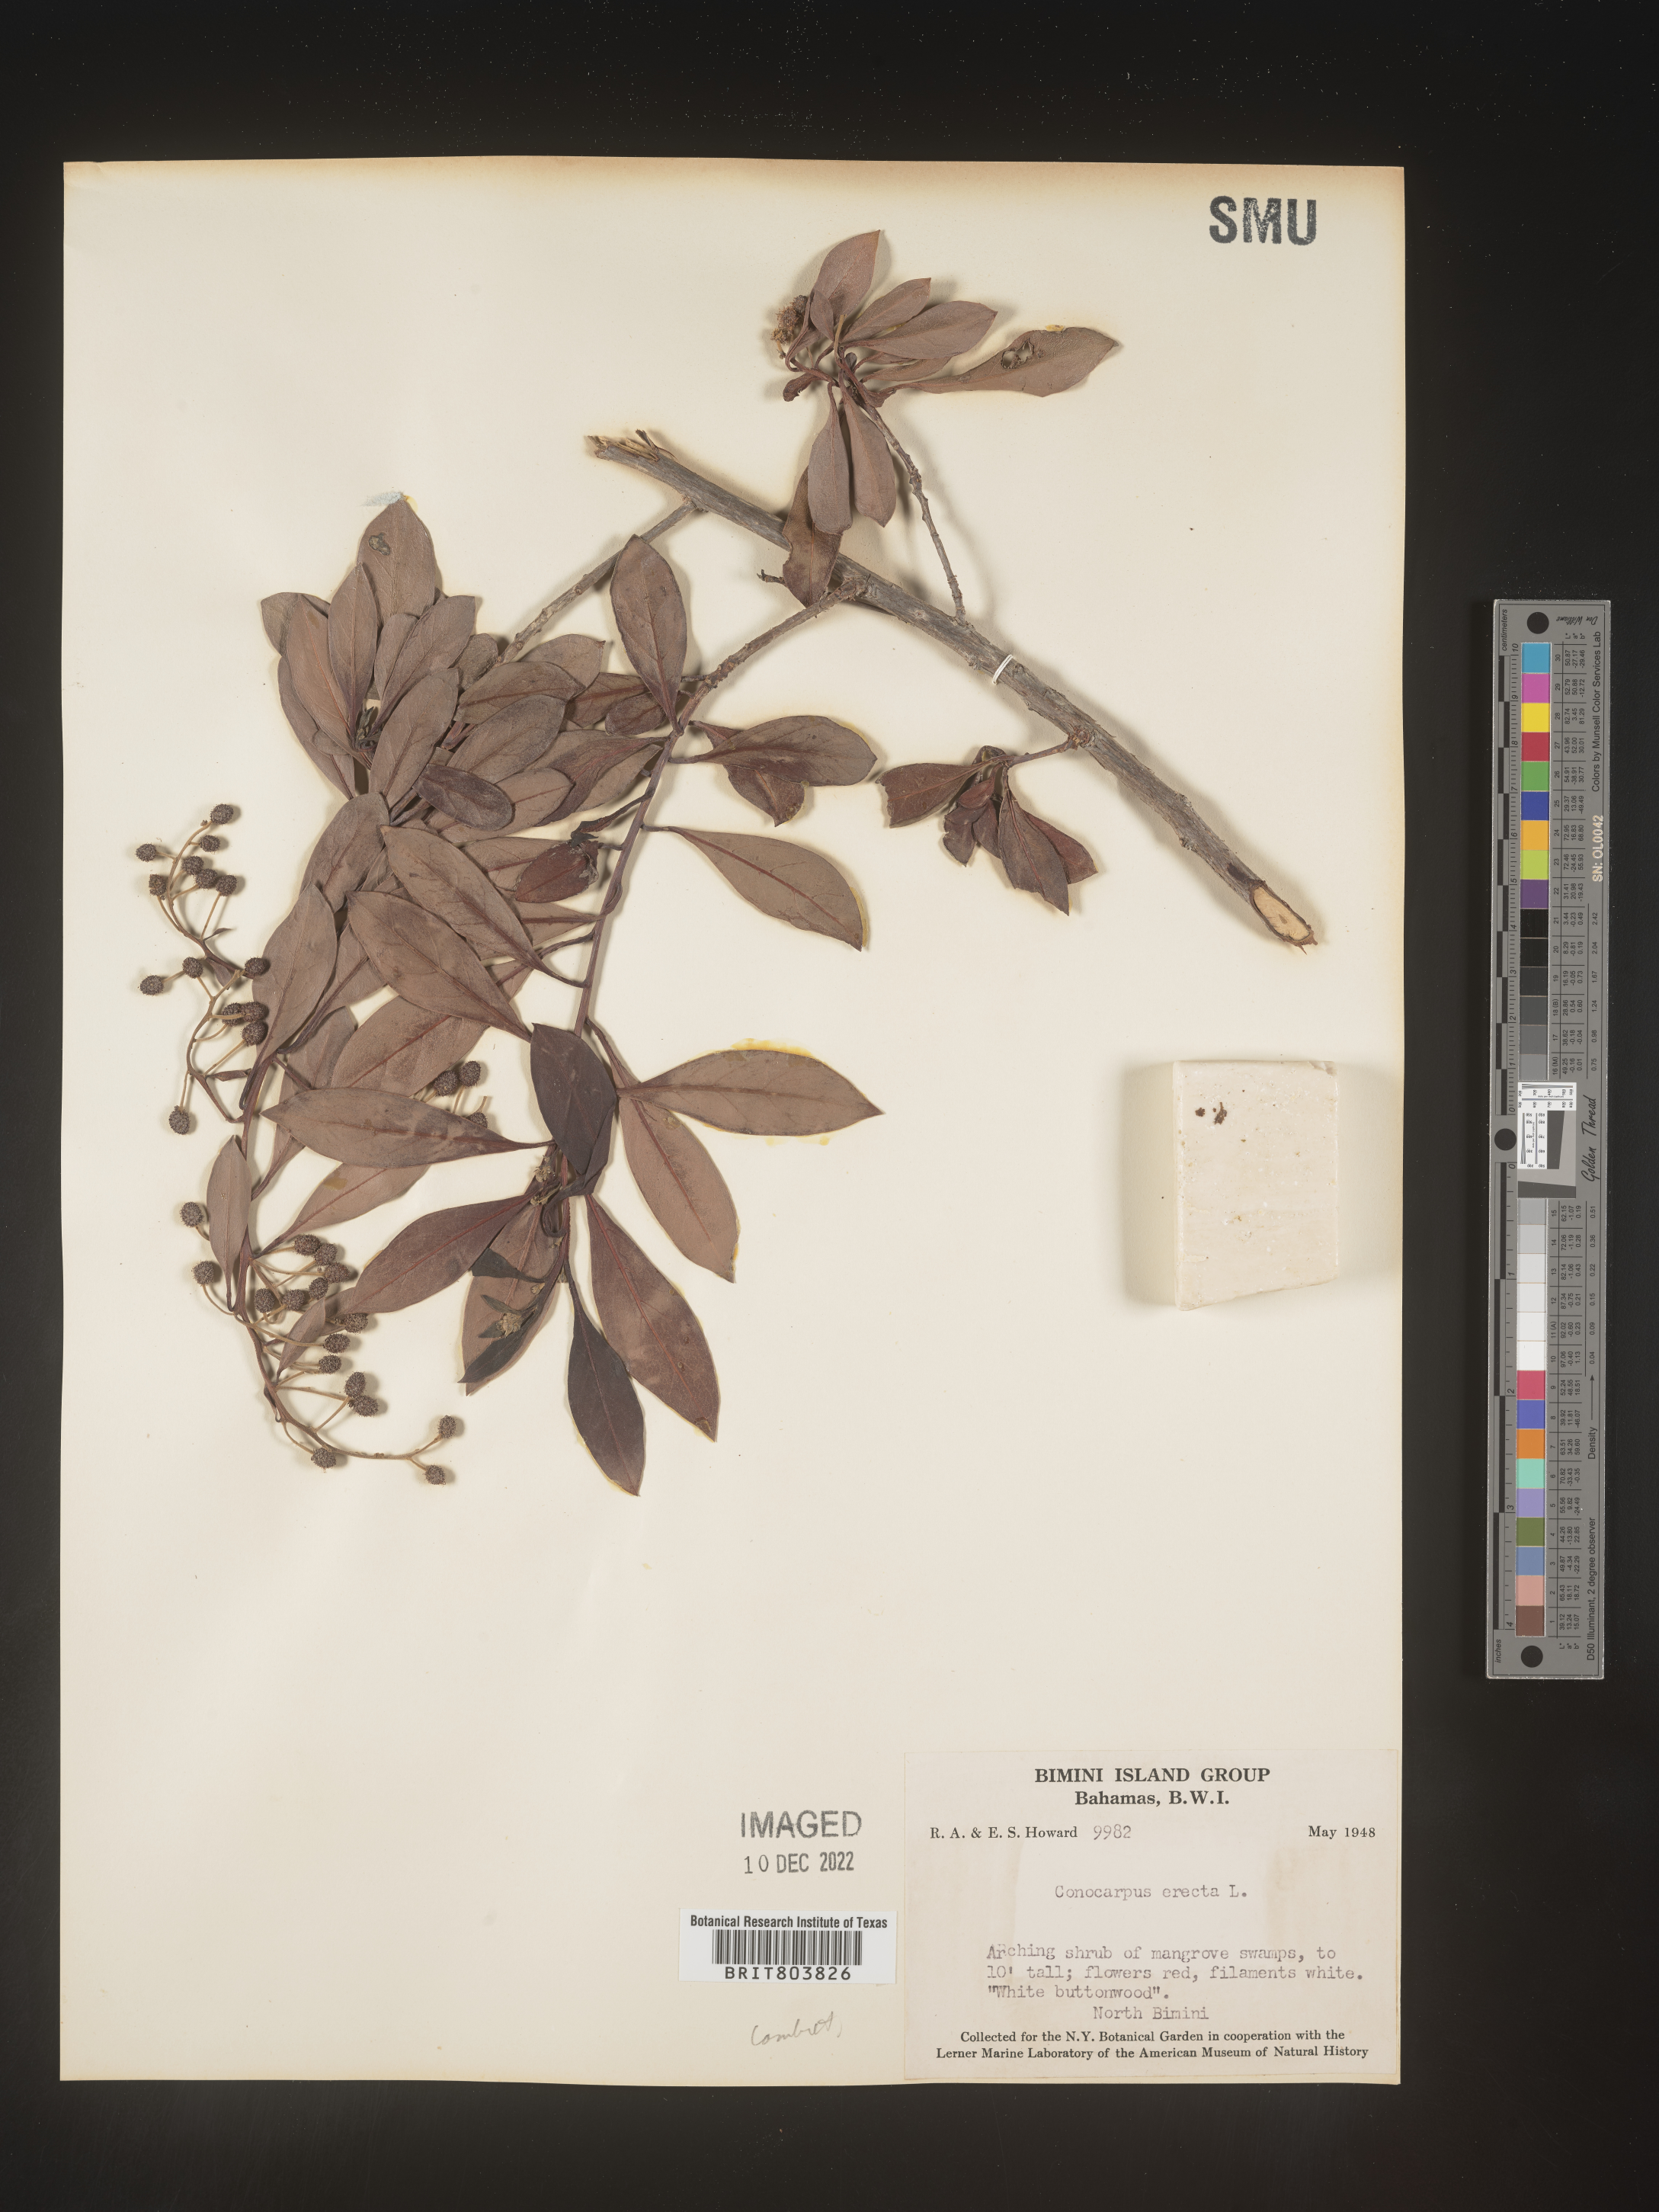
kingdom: Plantae
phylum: Tracheophyta
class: Magnoliopsida
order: Myrtales
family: Combretaceae
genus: Conocarpus
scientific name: Conocarpus
